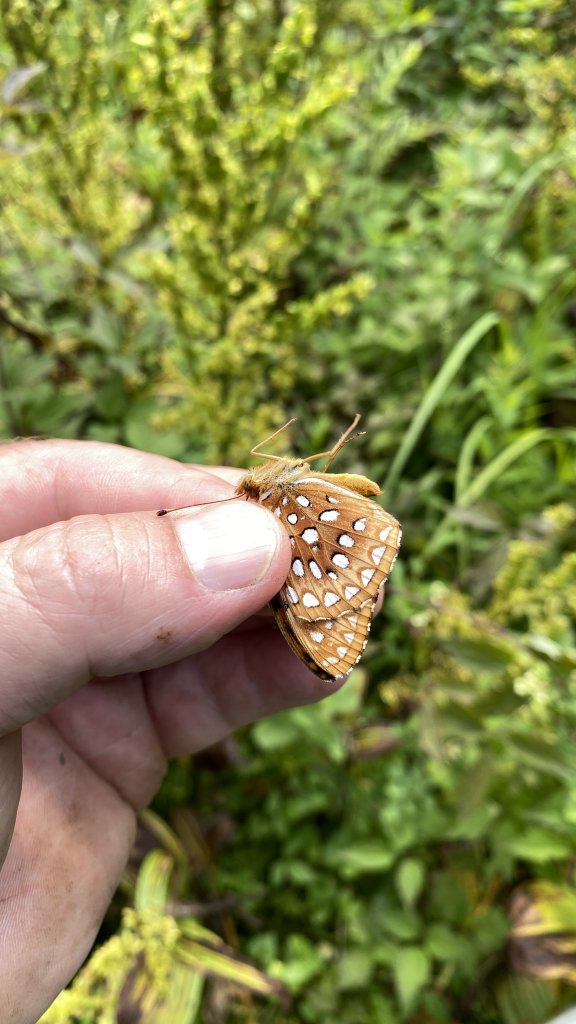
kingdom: Animalia
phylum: Arthropoda
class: Insecta
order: Lepidoptera
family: Nymphalidae
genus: Speyeria
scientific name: Speyeria aphrodite
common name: Aphrodite Fritillary
